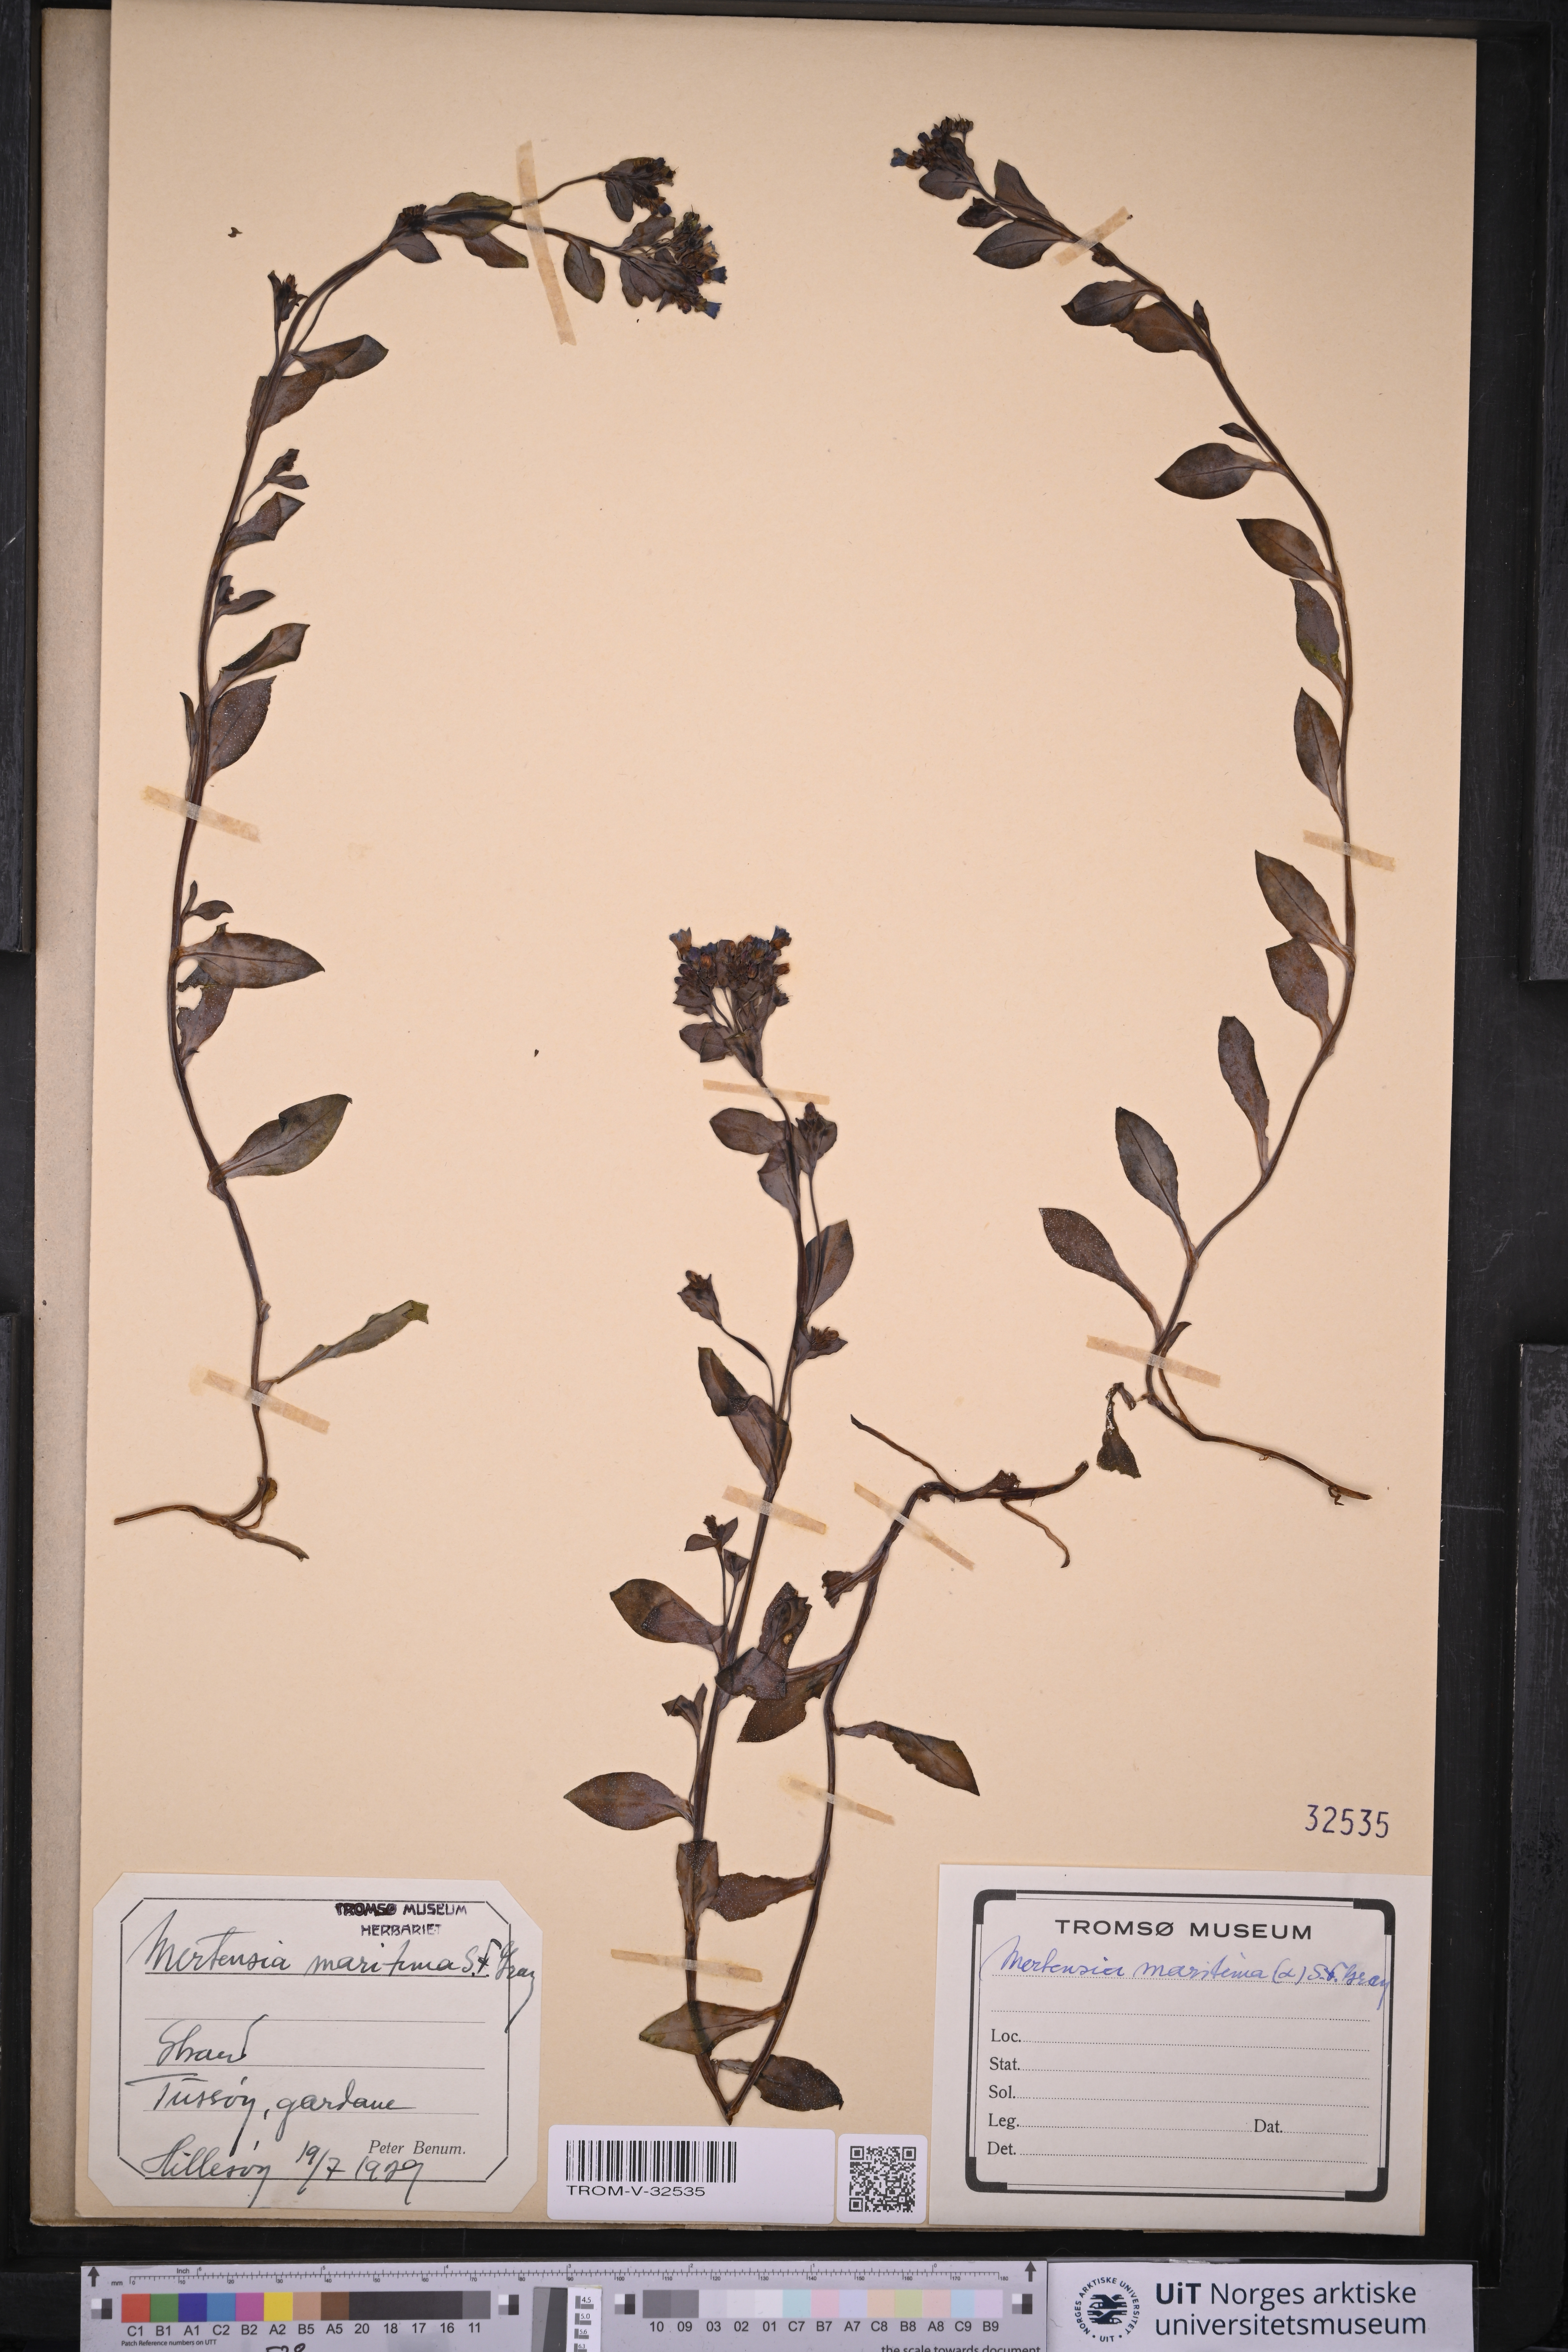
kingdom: Plantae
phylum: Tracheophyta
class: Magnoliopsida
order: Boraginales
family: Boraginaceae
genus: Mertensia
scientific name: Mertensia maritima
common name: Oysterplant
